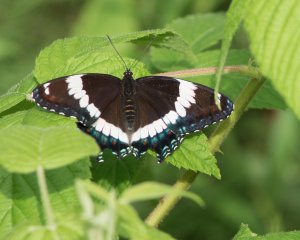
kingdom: Animalia
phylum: Arthropoda
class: Insecta
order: Lepidoptera
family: Nymphalidae
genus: Limenitis
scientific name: Limenitis arthemis
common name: Red-spotted Admiral
